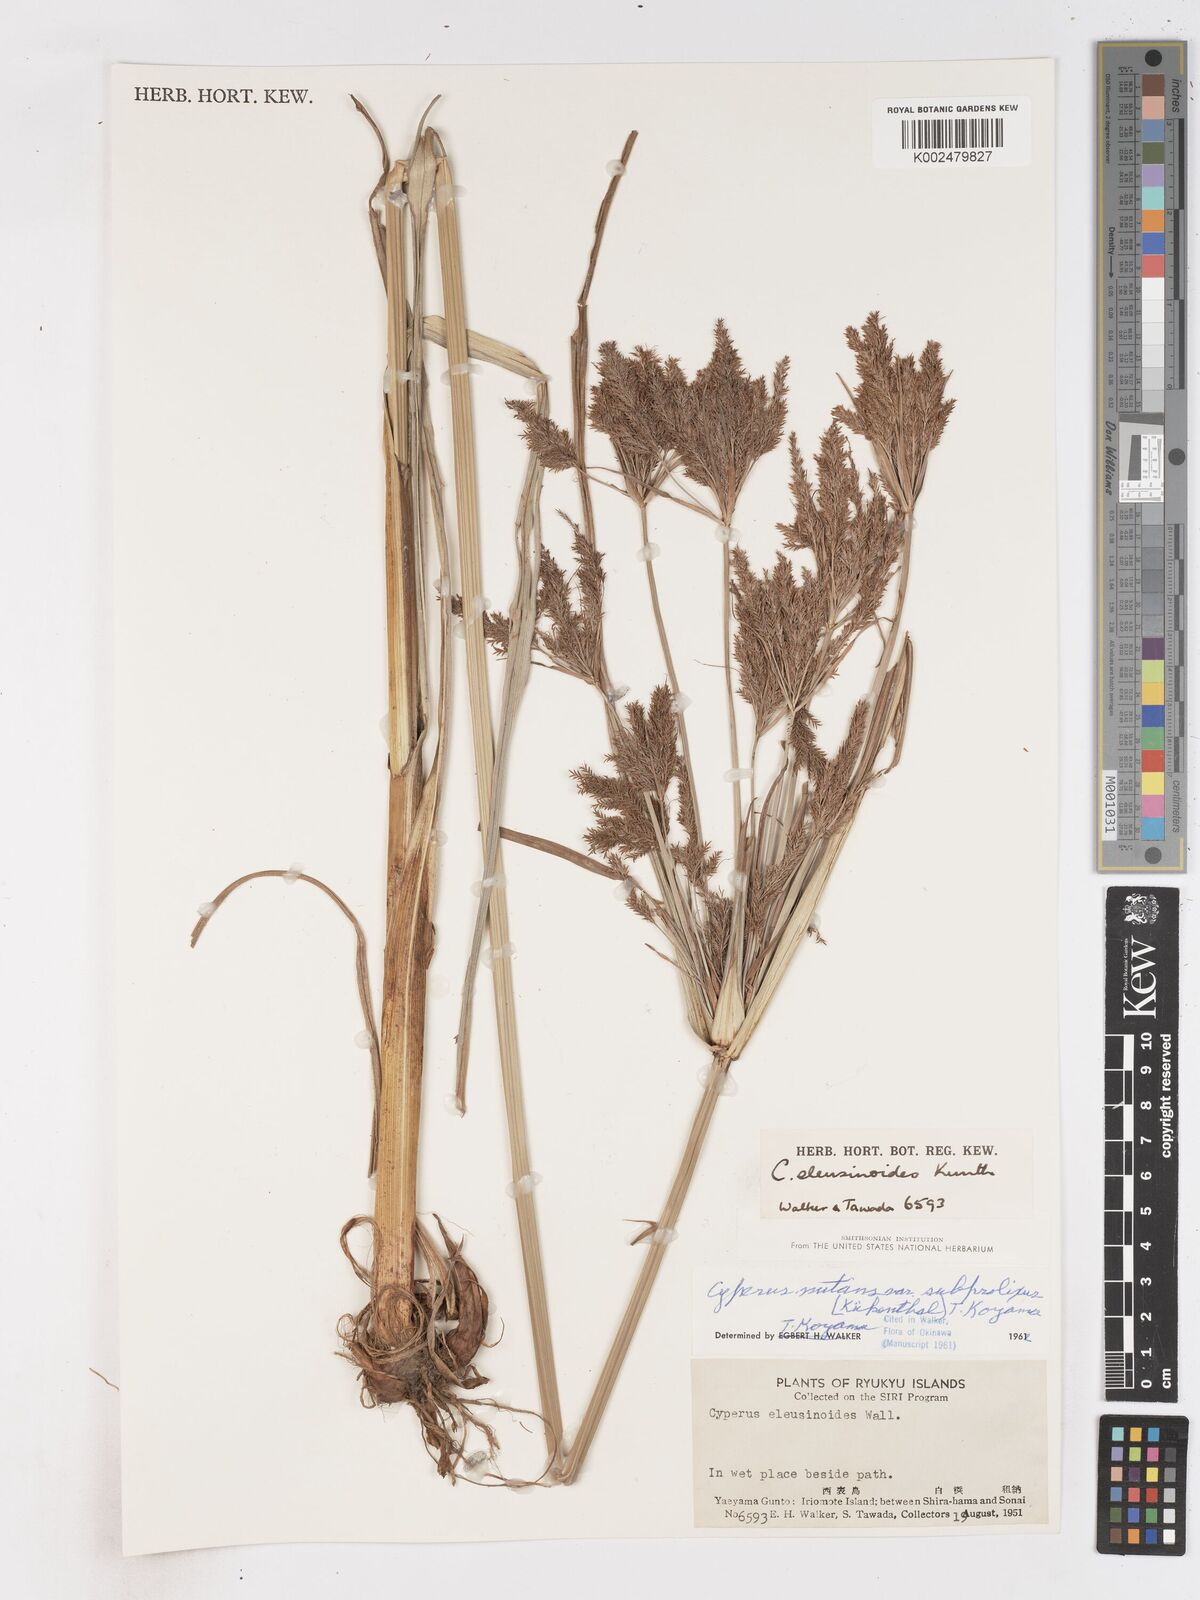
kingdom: Plantae
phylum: Tracheophyta
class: Liliopsida
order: Poales
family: Cyperaceae
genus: Cyperus
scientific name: Cyperus nutans
